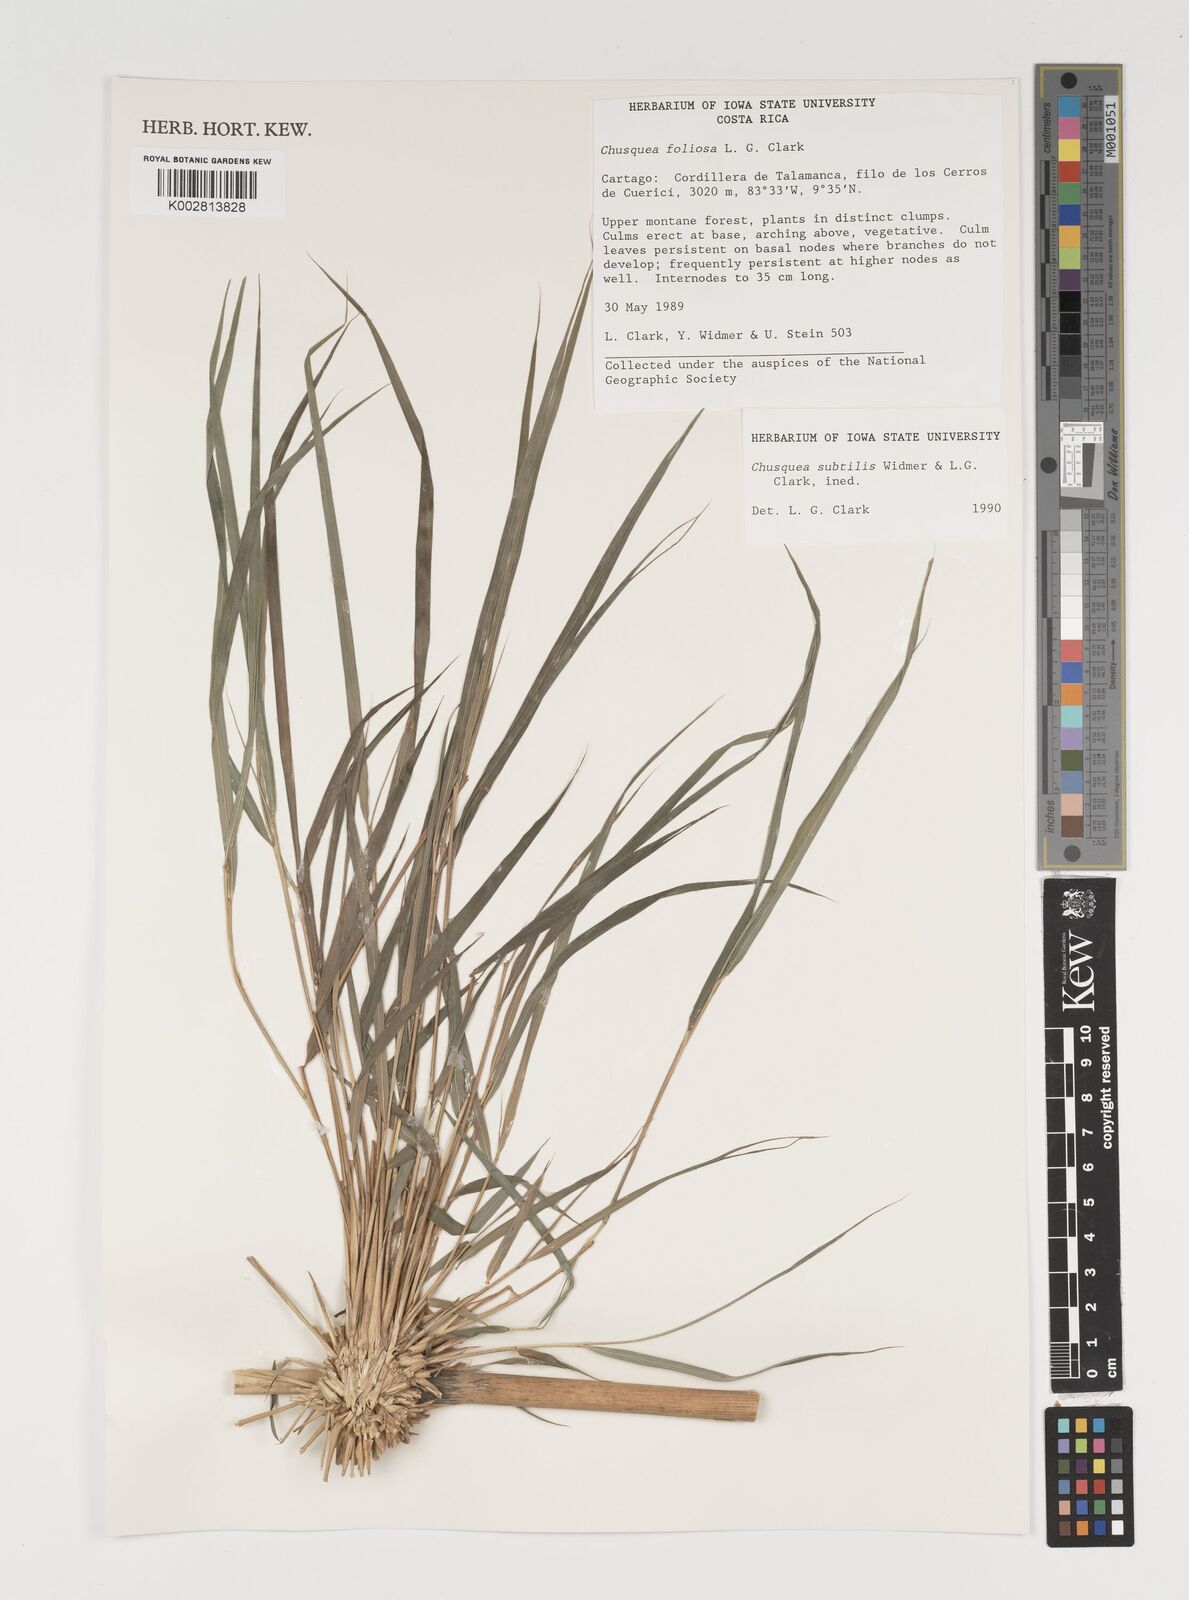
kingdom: Plantae
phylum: Tracheophyta
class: Liliopsida
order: Poales
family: Poaceae
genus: Chusquea
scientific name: Chusquea subtilis
